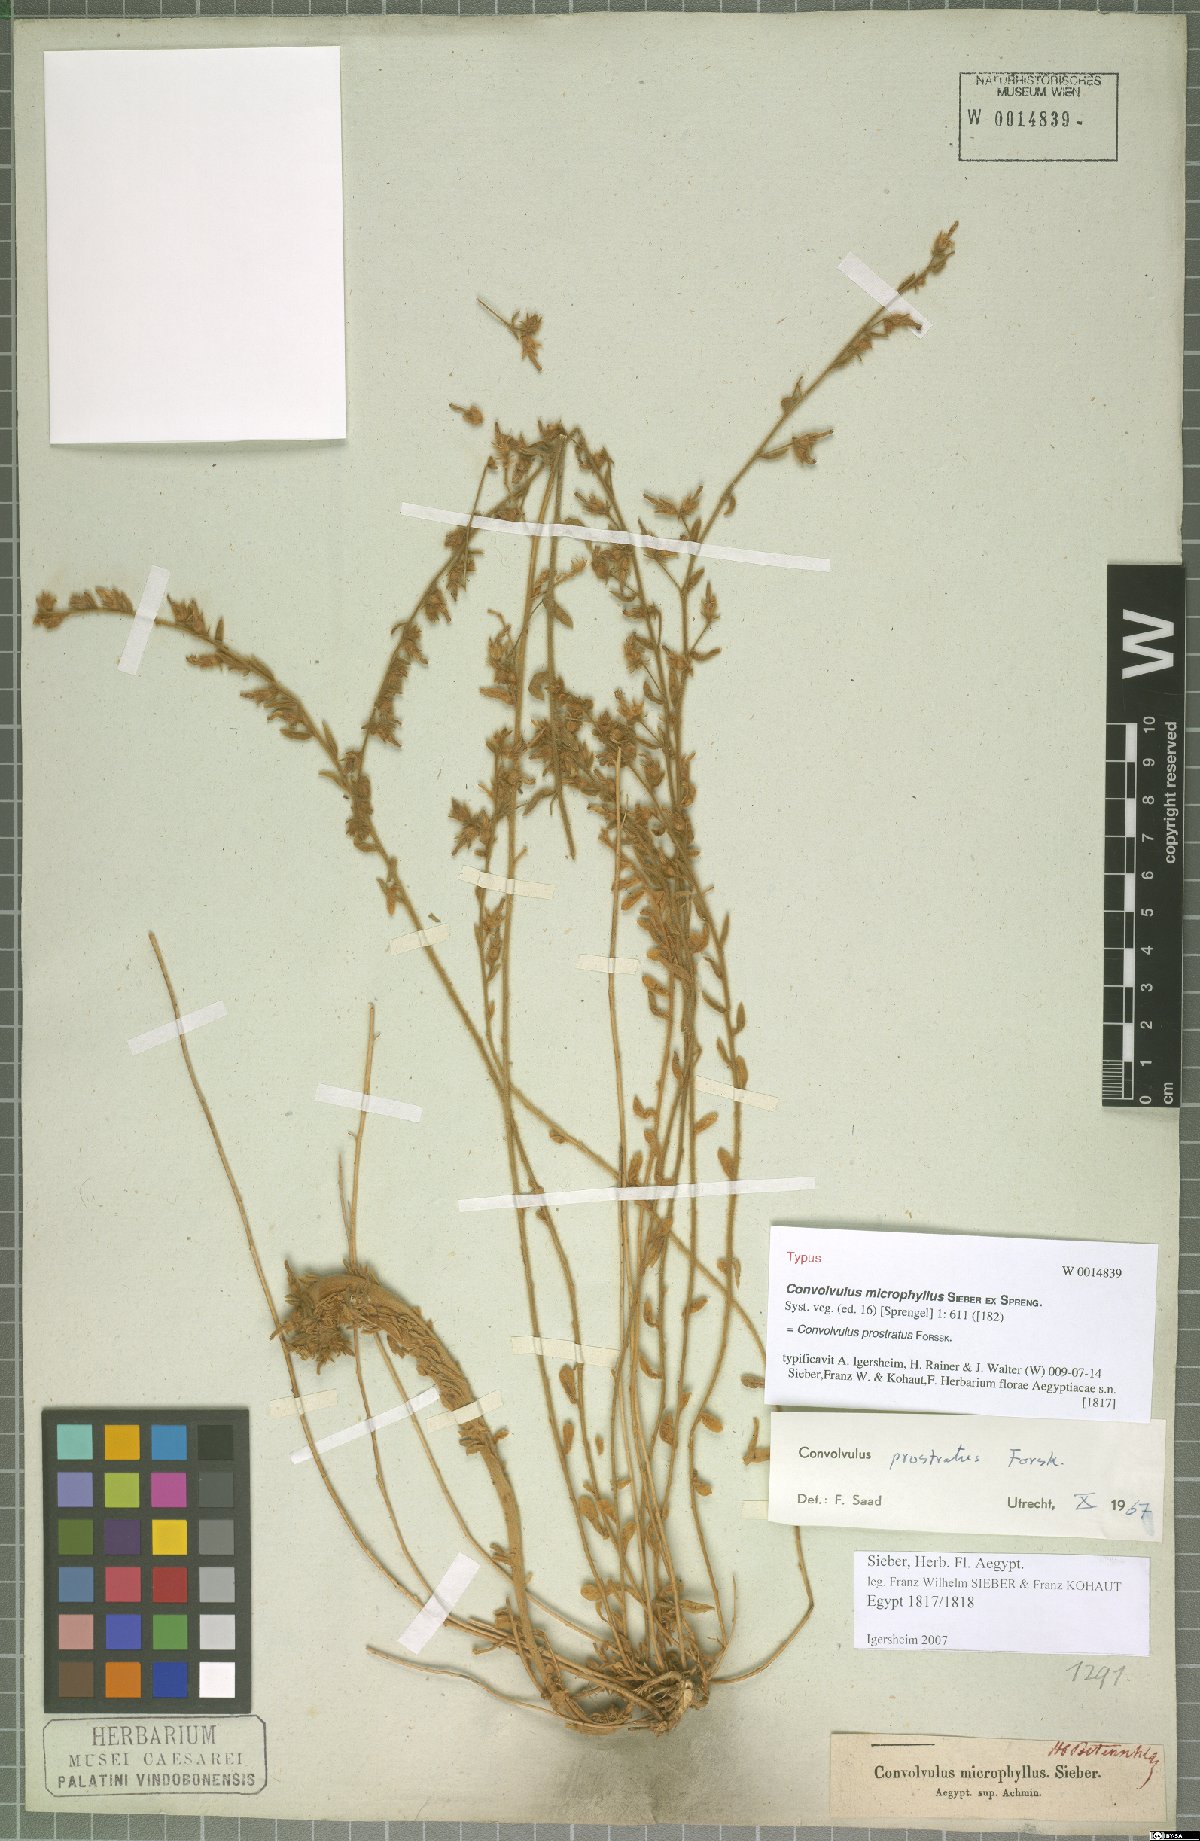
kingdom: Plantae
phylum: Tracheophyta
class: Magnoliopsida
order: Solanales
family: Convolvulaceae
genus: Convolvulus
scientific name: Convolvulus prostratus
